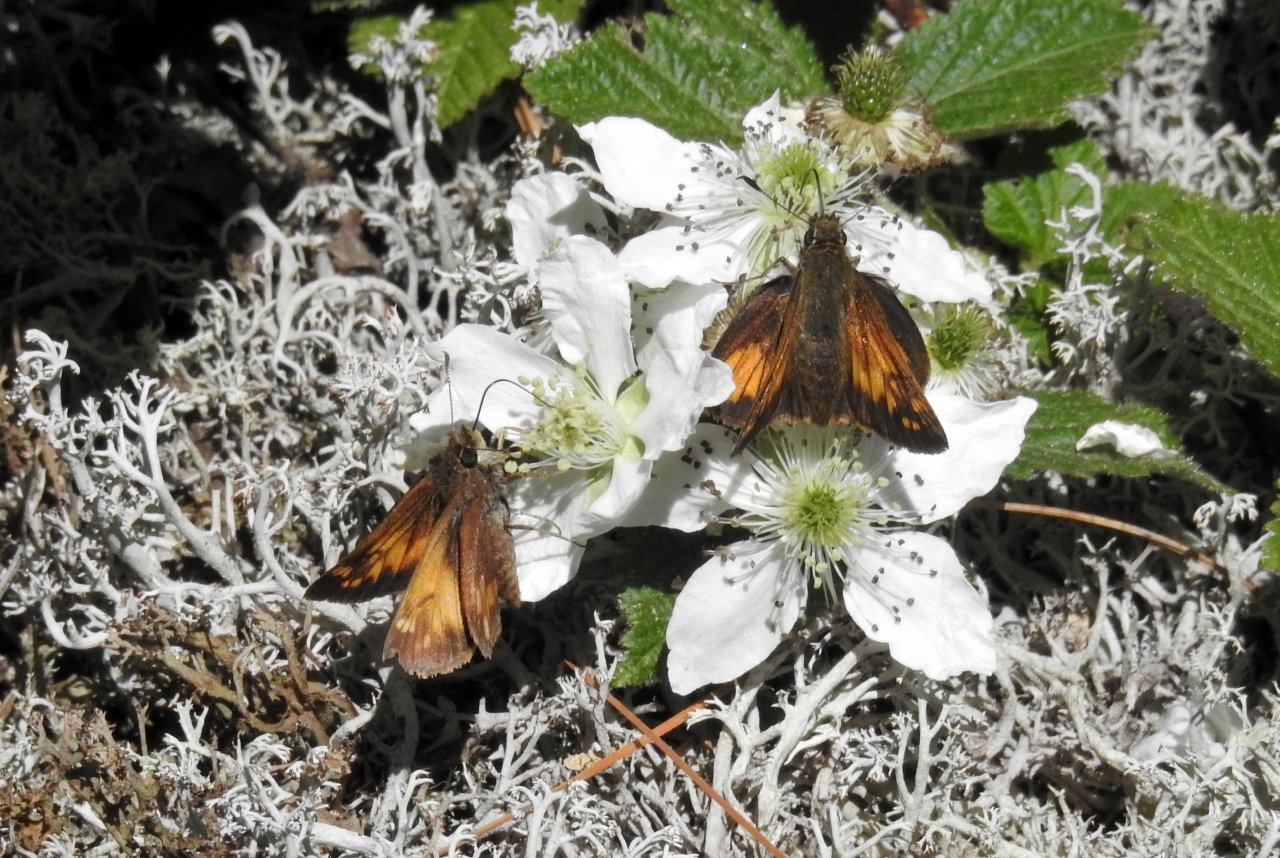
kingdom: Animalia
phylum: Arthropoda
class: Insecta
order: Lepidoptera
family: Hesperiidae
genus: Lon
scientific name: Lon hobomok
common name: Hobomok Skipper
